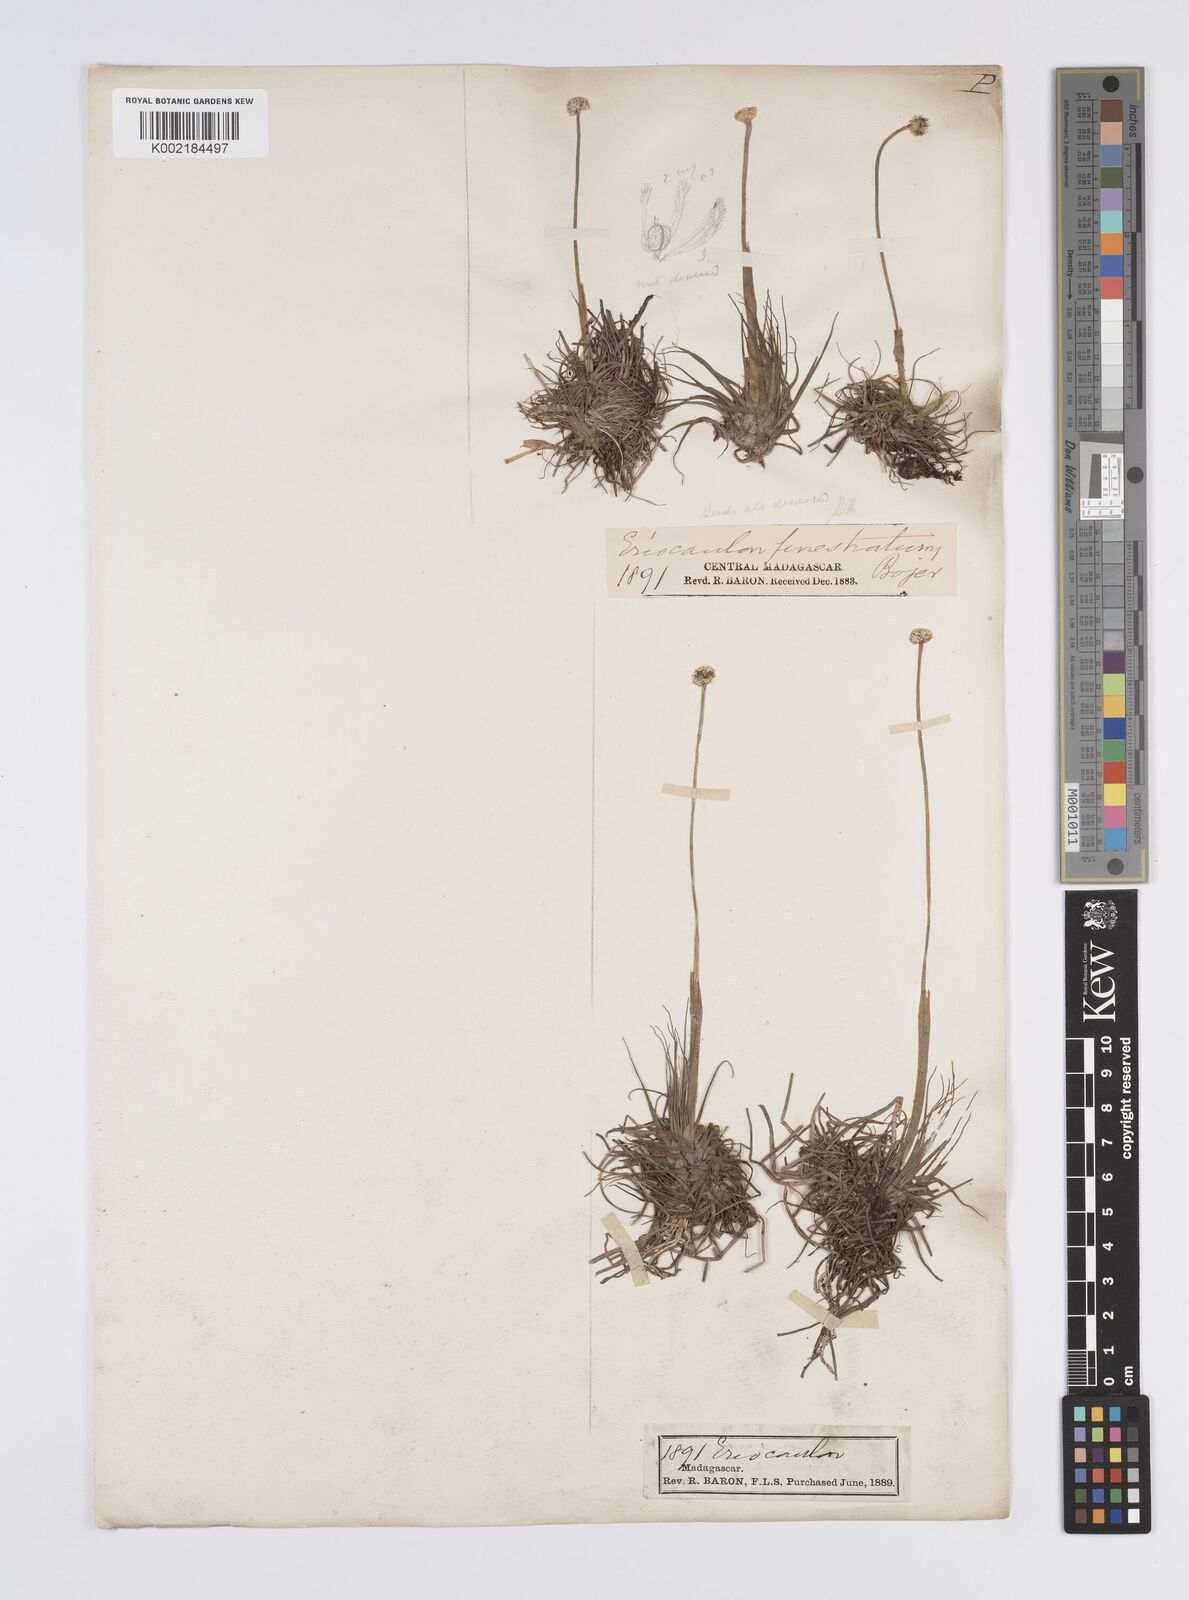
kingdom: Plantae
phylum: Tracheophyta
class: Liliopsida
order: Poales
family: Eriocaulaceae
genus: Eriocaulon
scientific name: Eriocaulon
